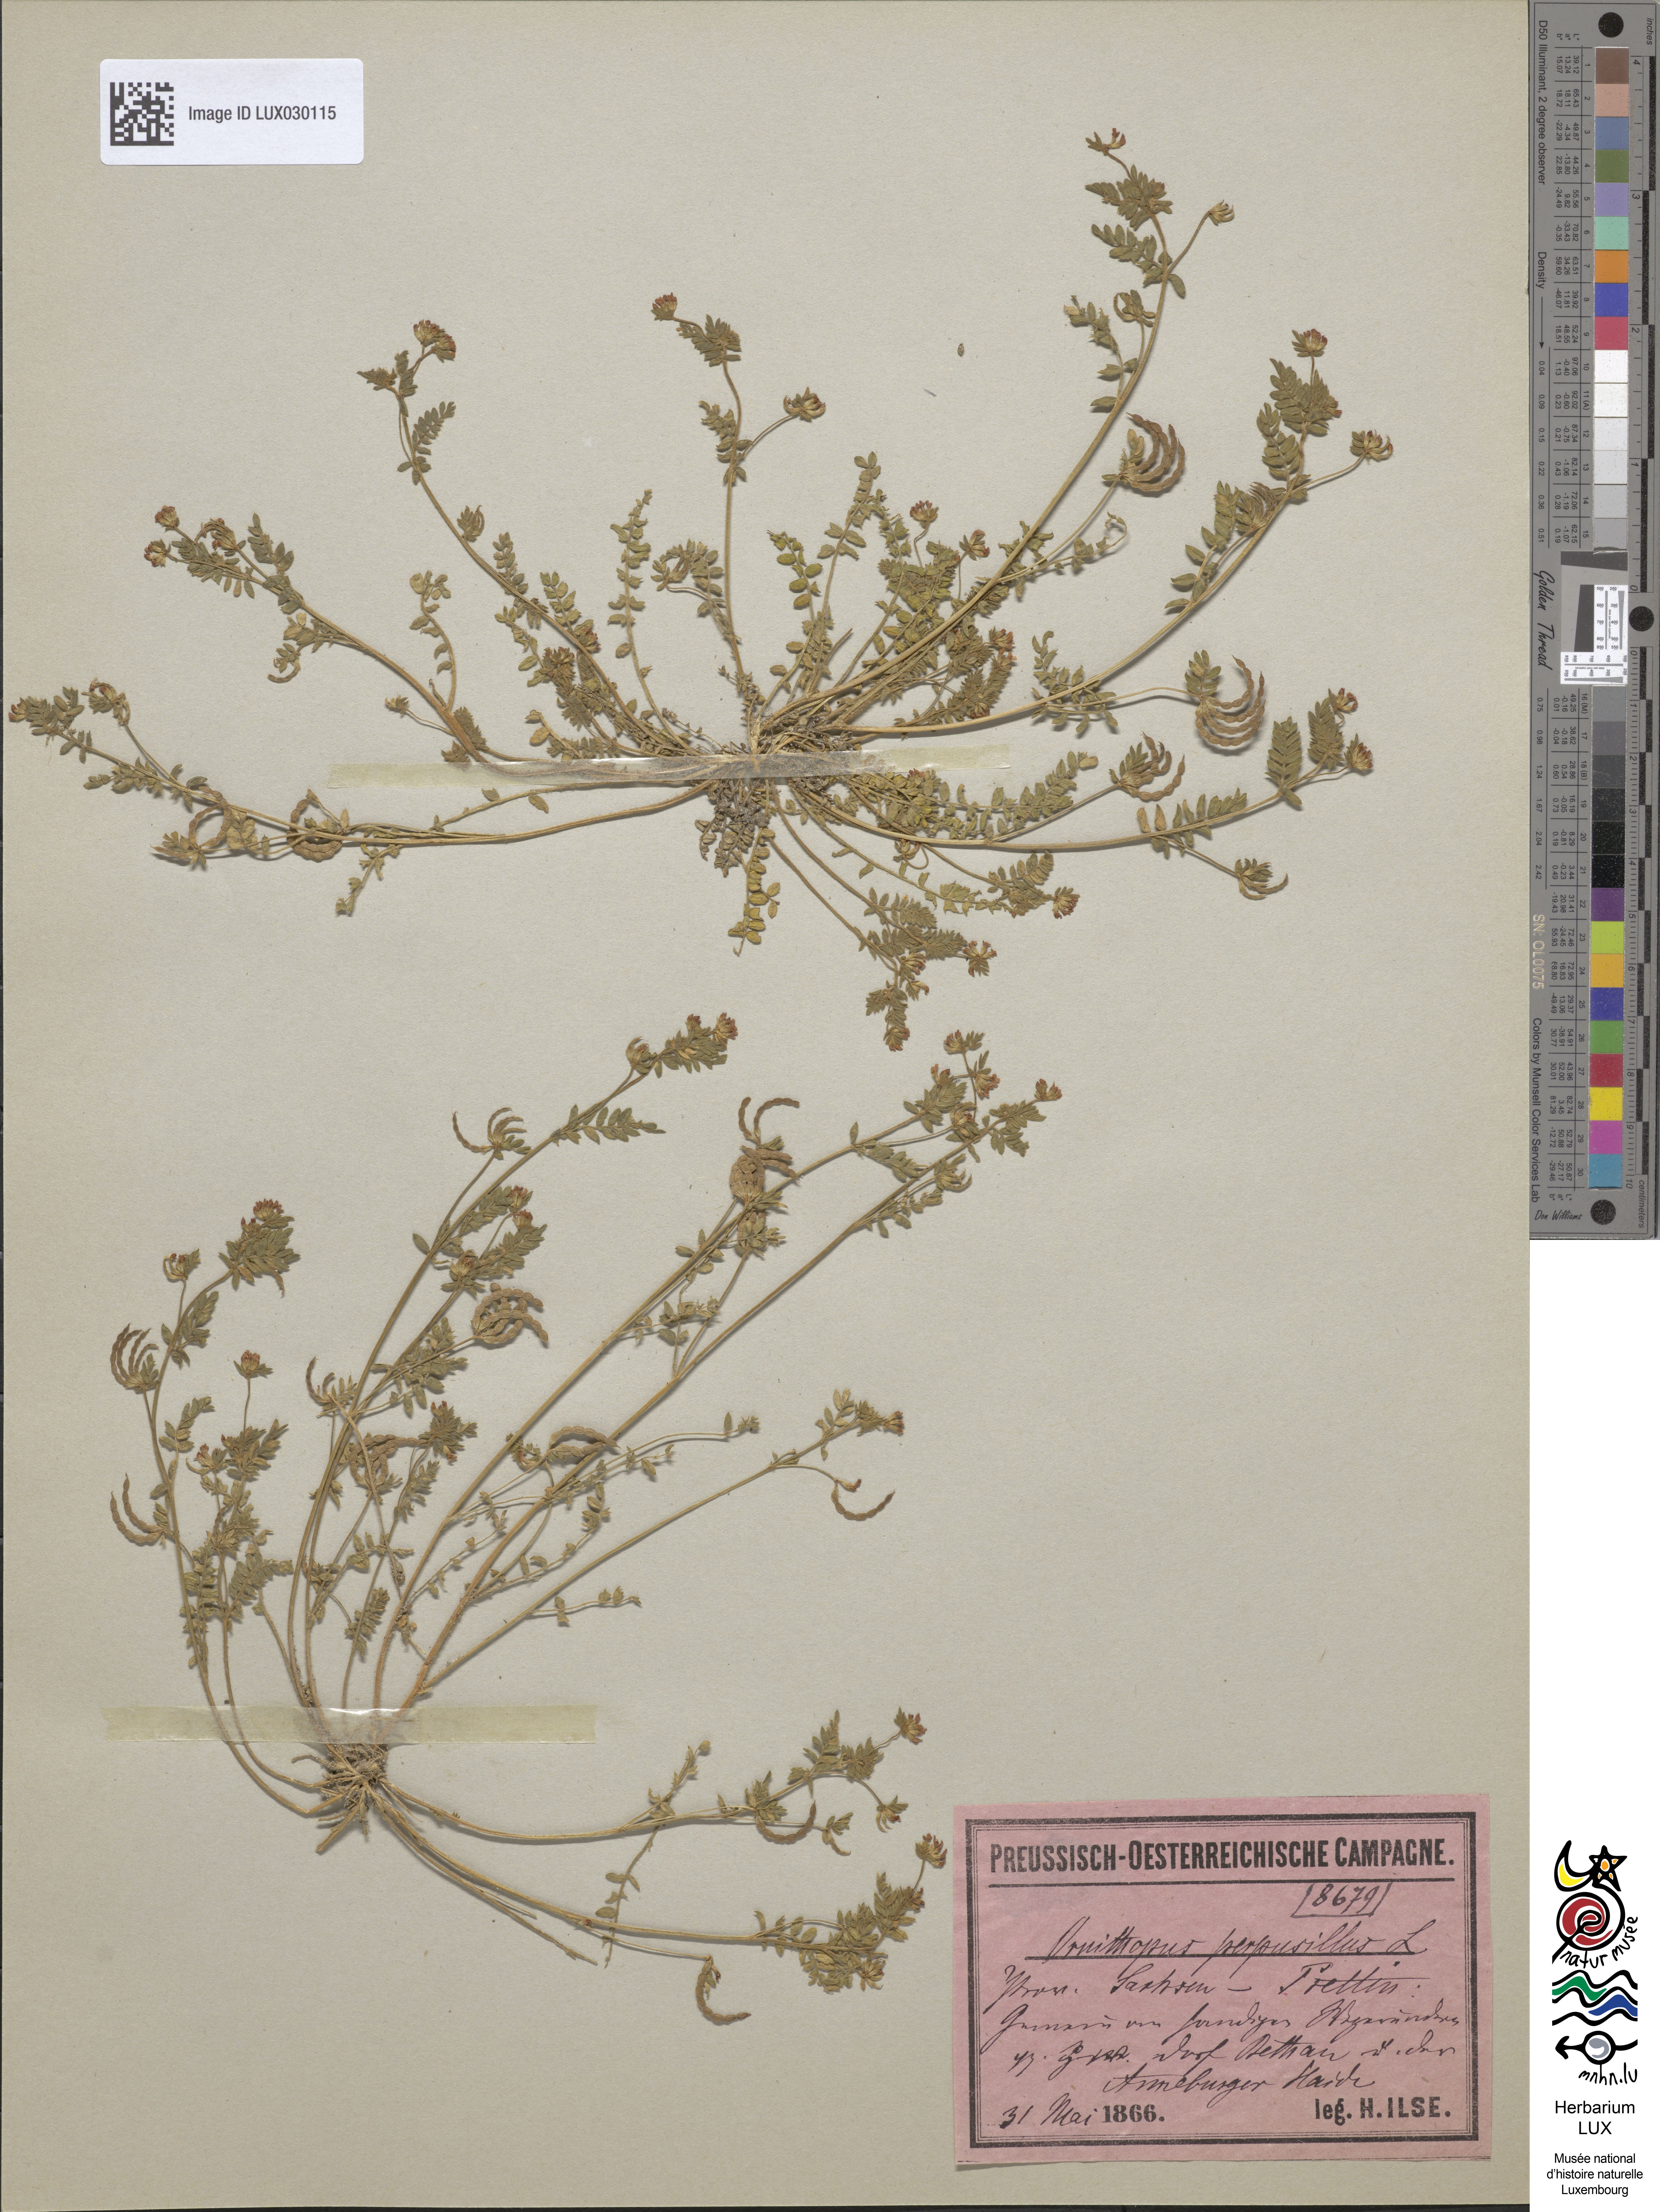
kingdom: Plantae
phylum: Tracheophyta
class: Magnoliopsida
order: Fabales
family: Fabaceae
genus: Ornithopus
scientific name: Ornithopus perpusillus
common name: Bird's-foot
